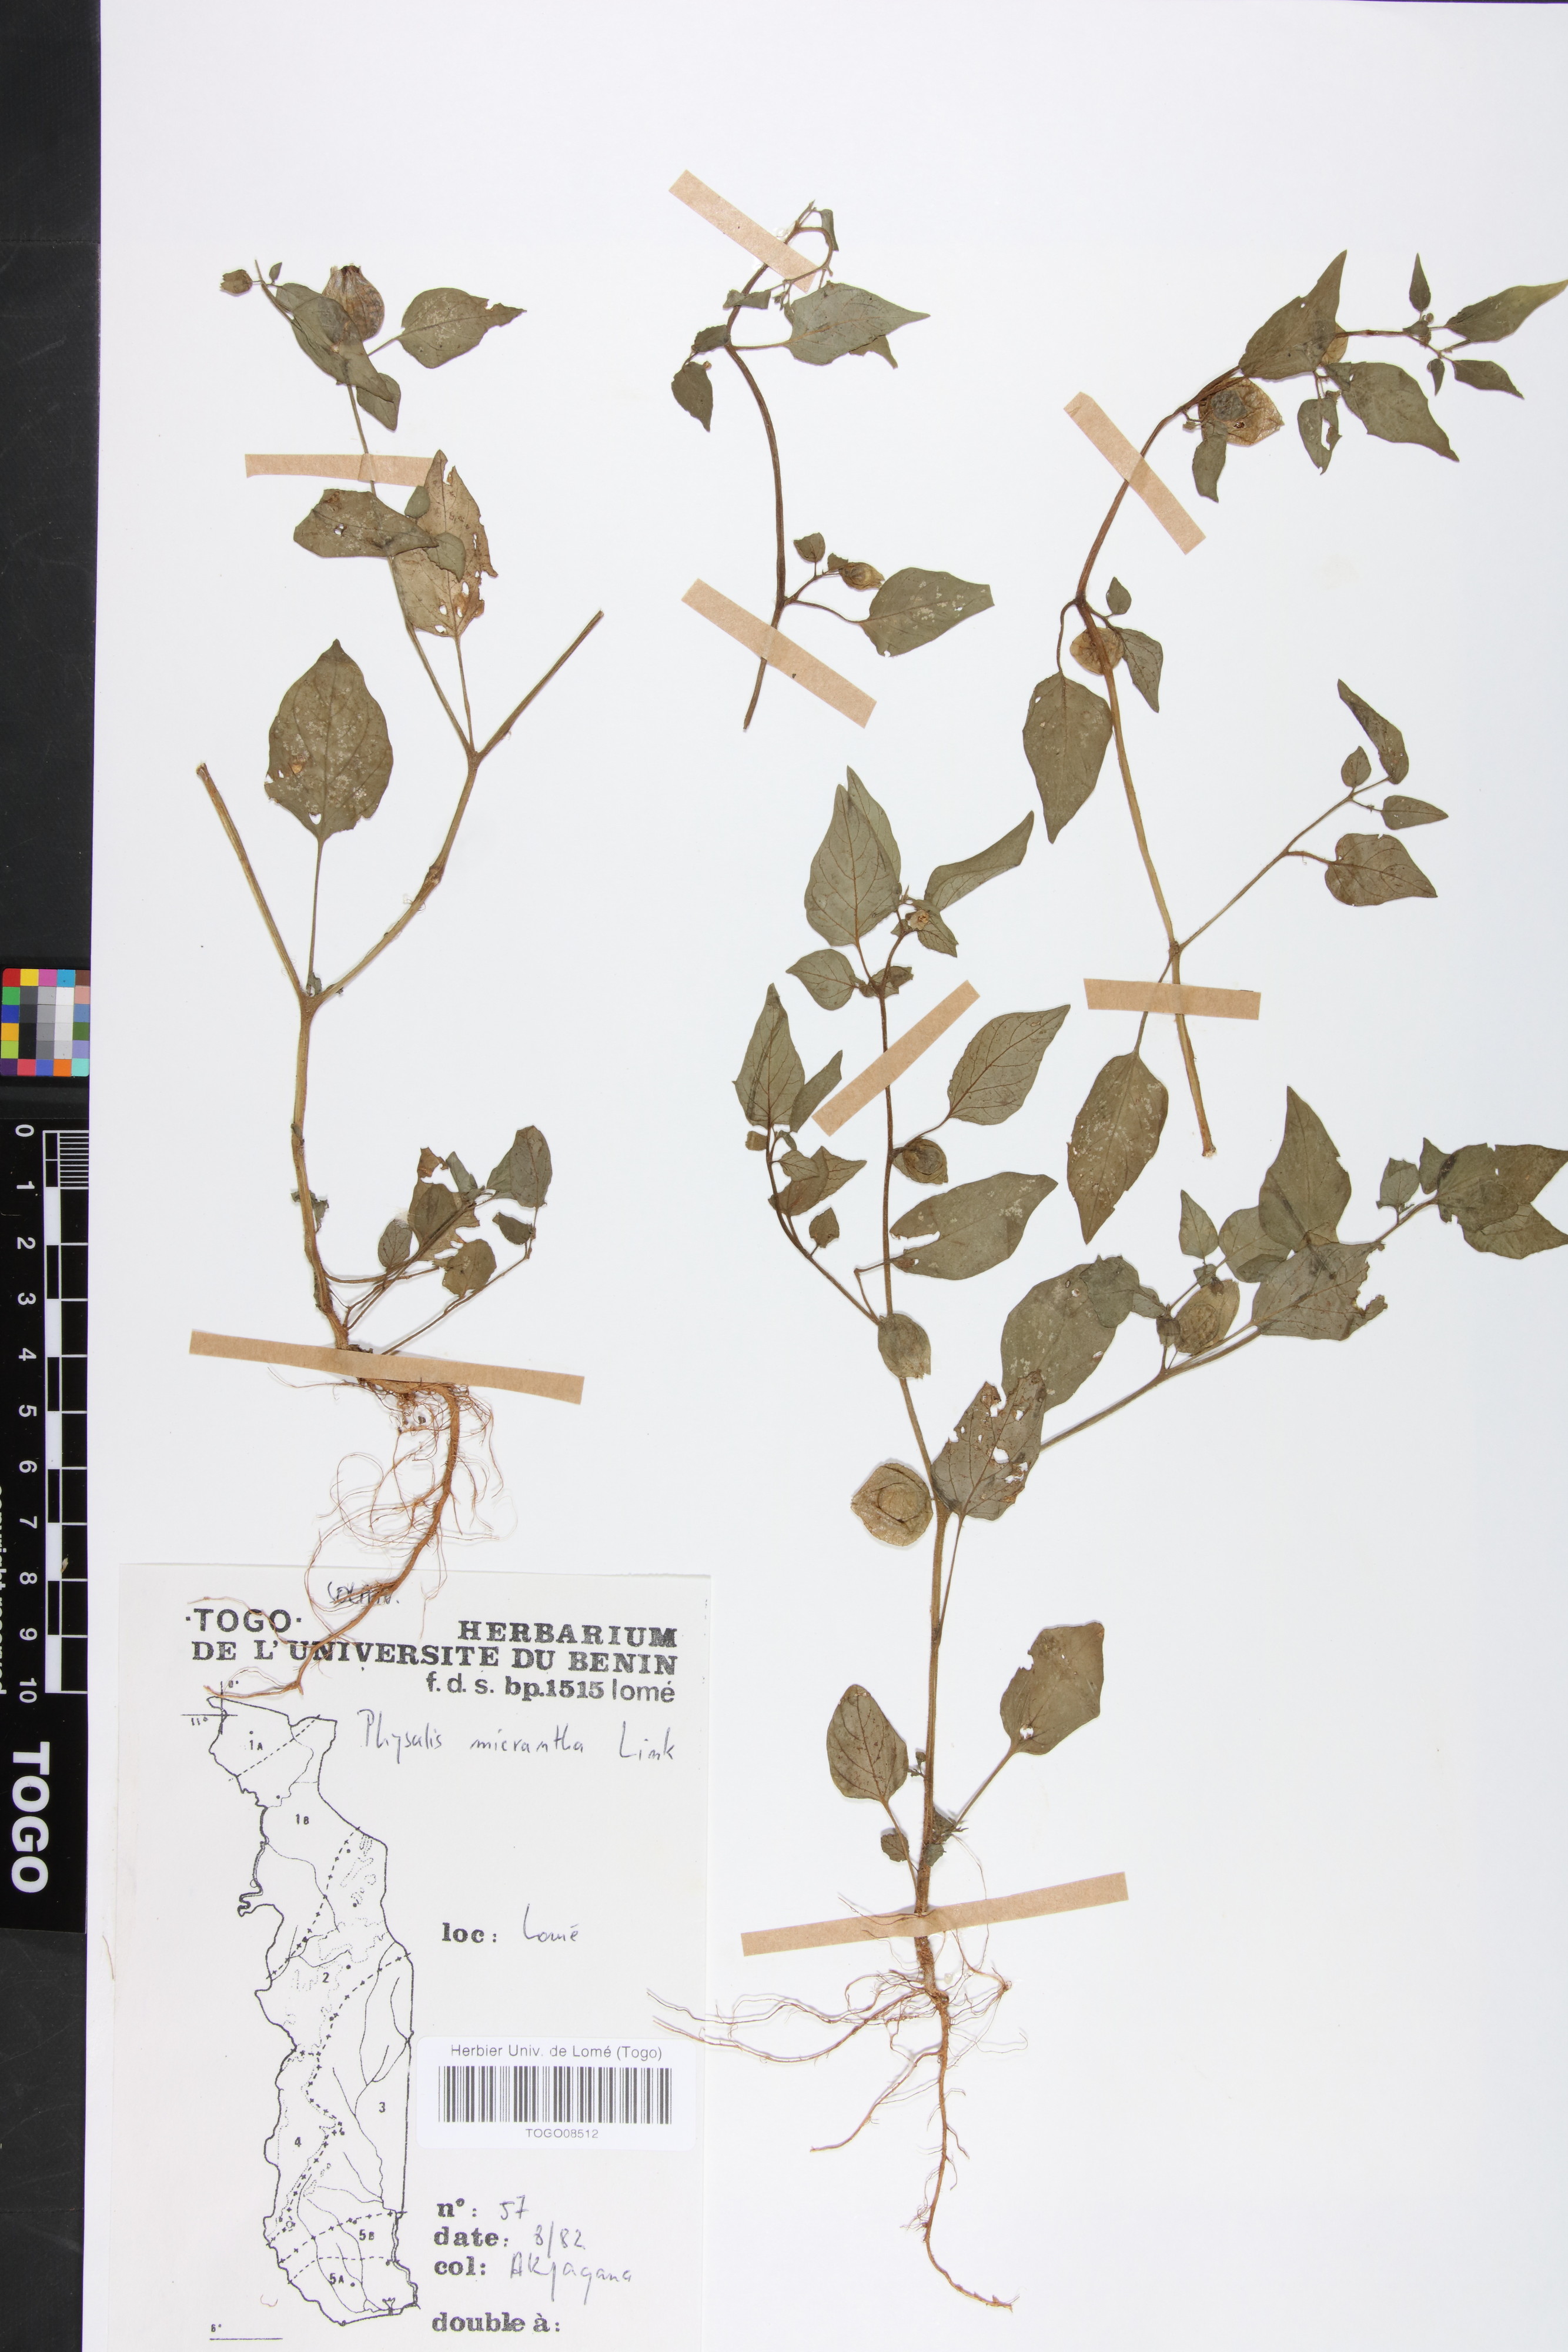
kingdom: Plantae
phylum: Tracheophyta
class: Magnoliopsida
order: Solanales
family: Solanaceae
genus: Physalis
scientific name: Physalis lagascae
